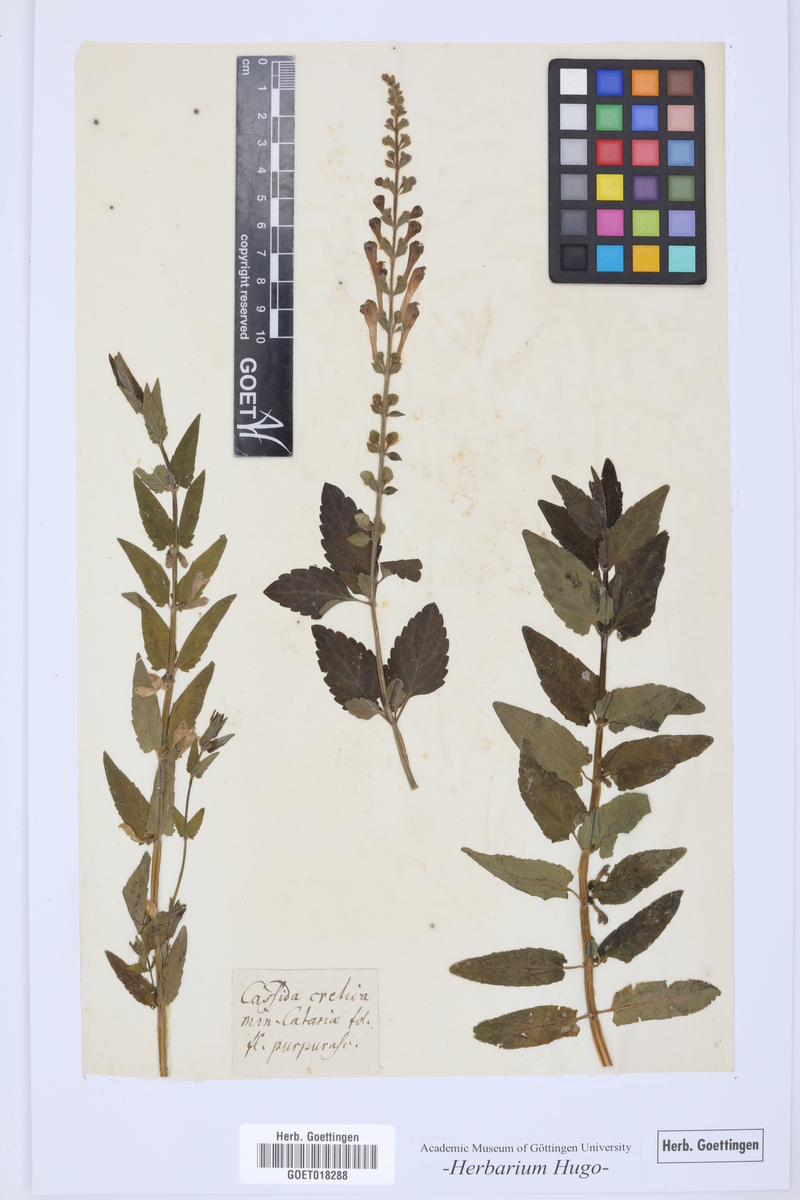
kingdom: Plantae
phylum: Tracheophyta
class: Magnoliopsida
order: Lamiales
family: Lamiaceae
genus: Cassida
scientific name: Cassida
